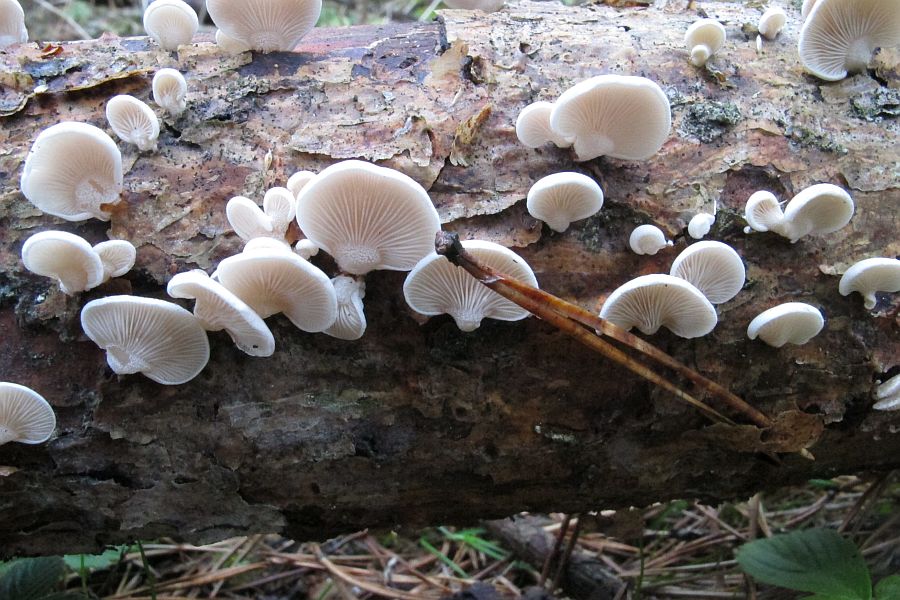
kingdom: Fungi
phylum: Basidiomycota
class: Agaricomycetes
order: Agaricales
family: Mycenaceae
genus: Panellus
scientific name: Panellus mitis
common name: mild epaulethat
